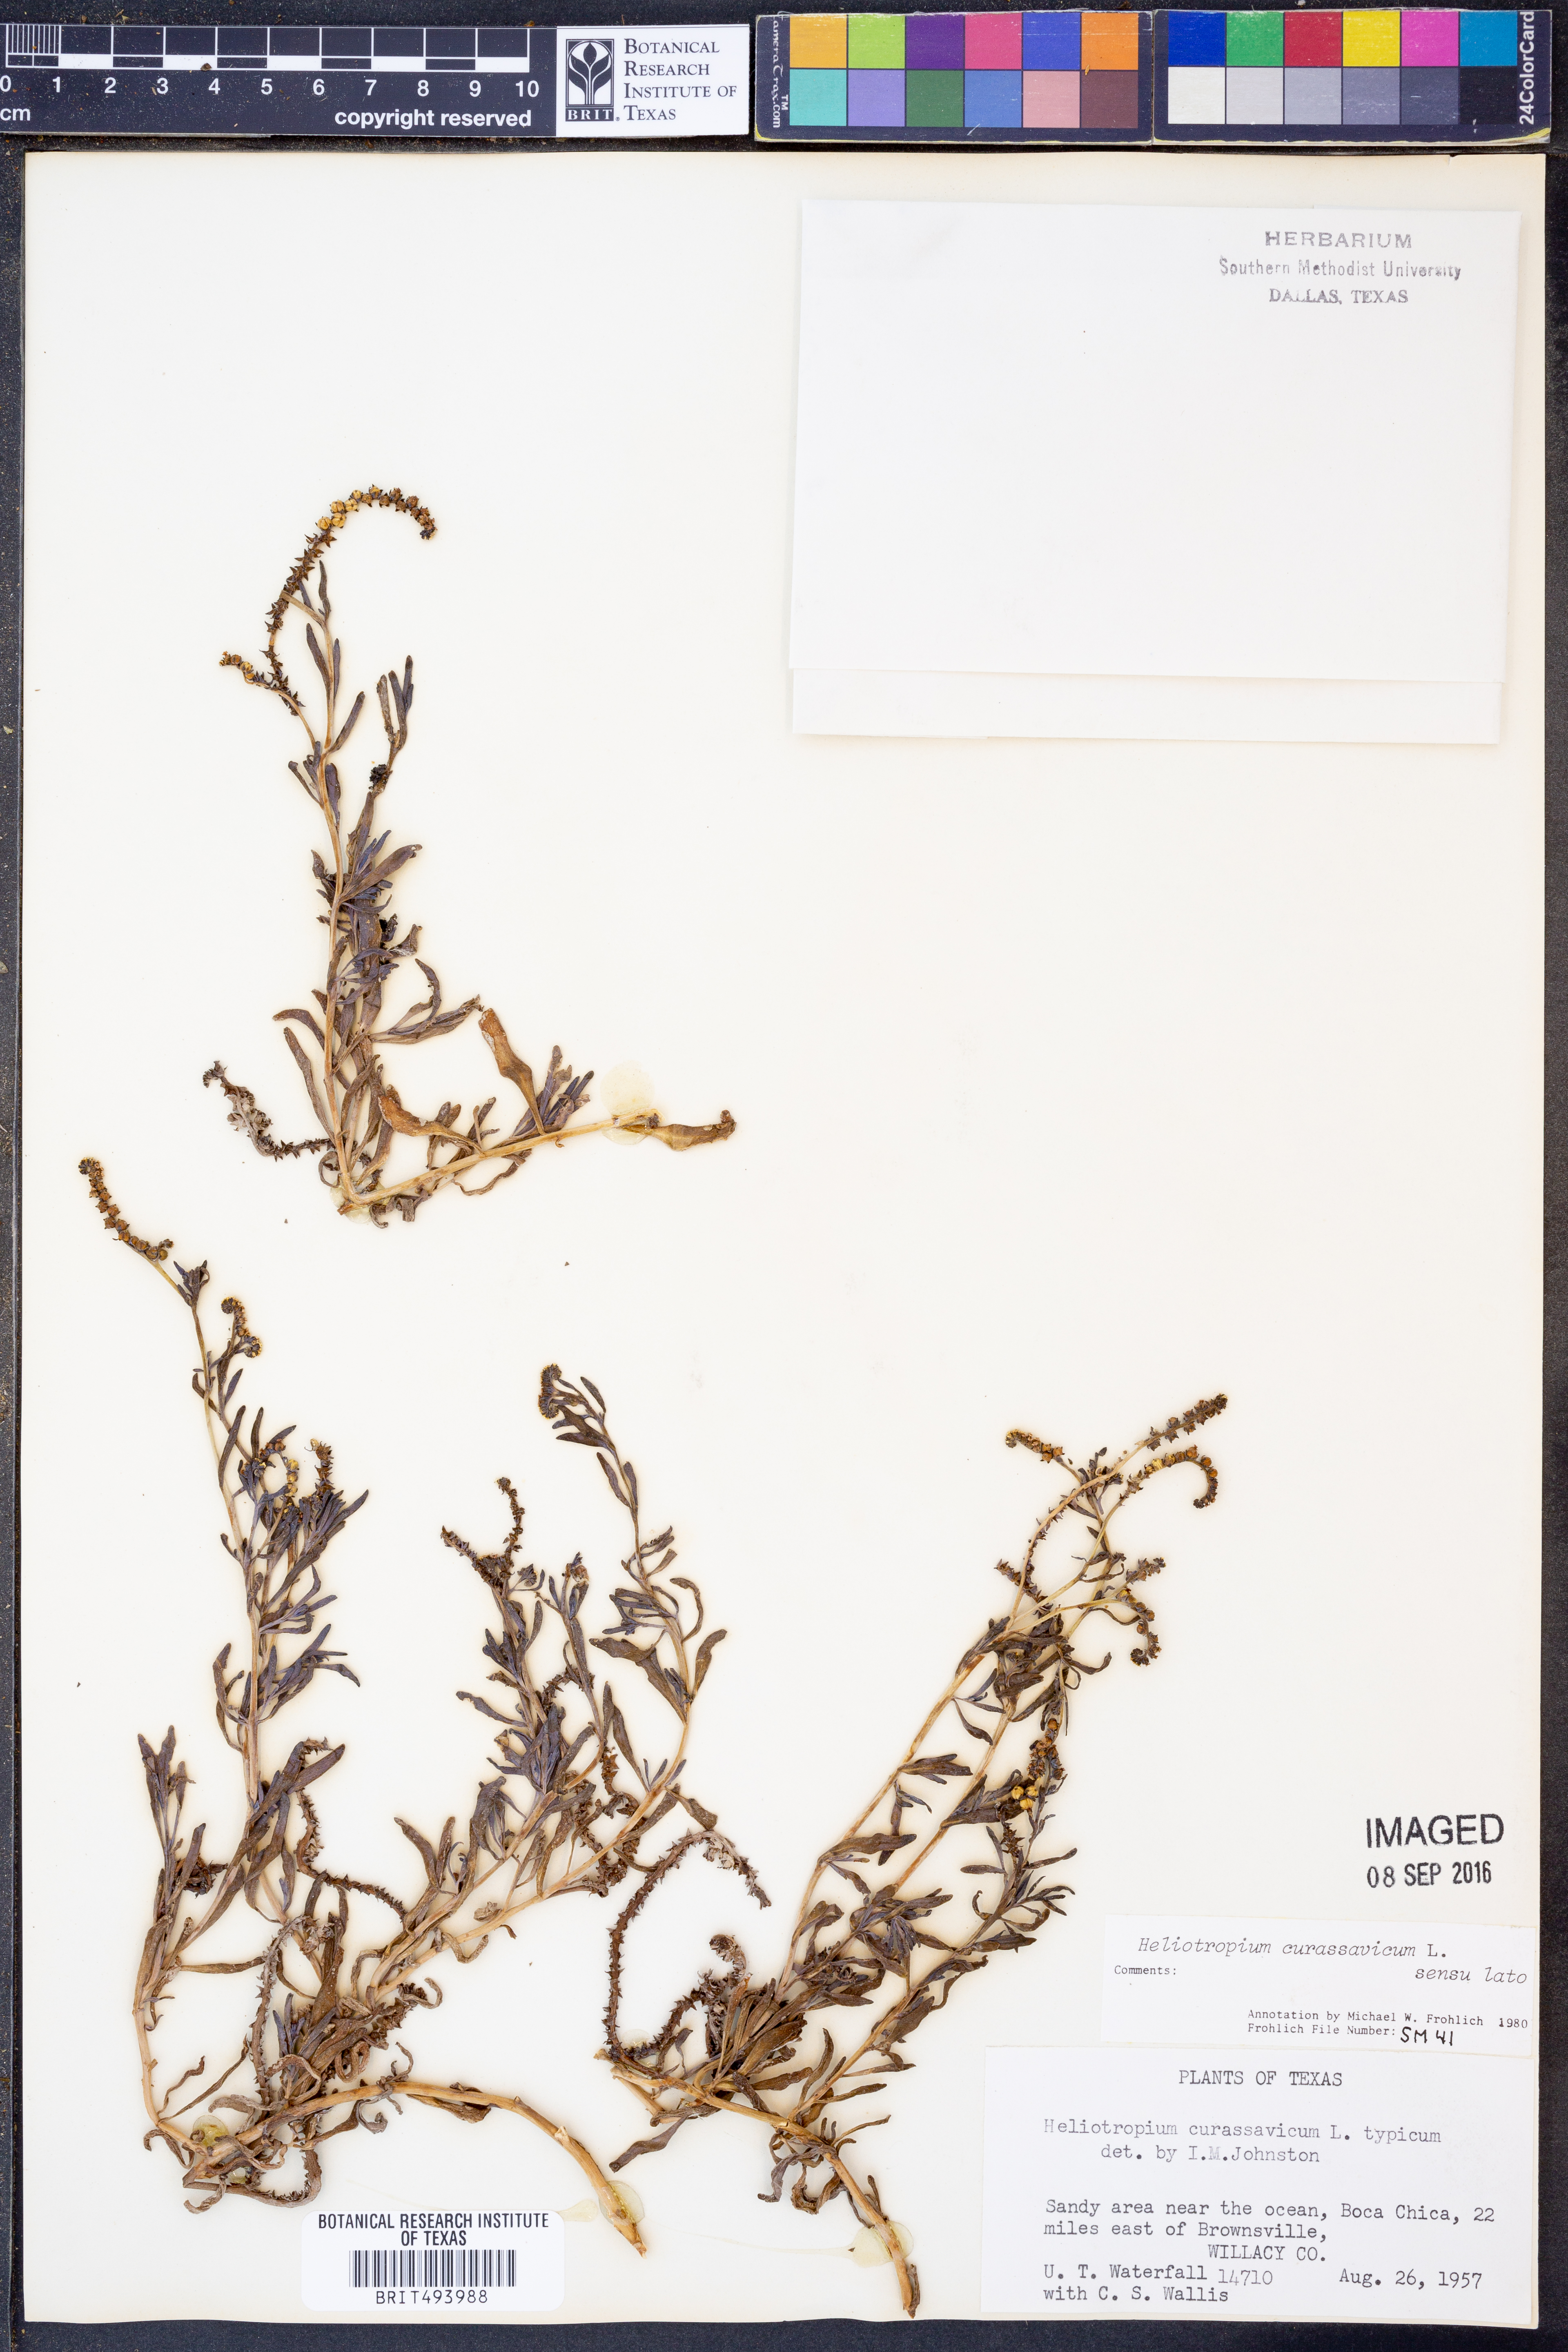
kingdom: Plantae
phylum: Tracheophyta
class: Magnoliopsida
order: Boraginales
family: Heliotropiaceae
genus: Heliotropium
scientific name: Heliotropium curassavicum
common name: Seaside heliotrope
